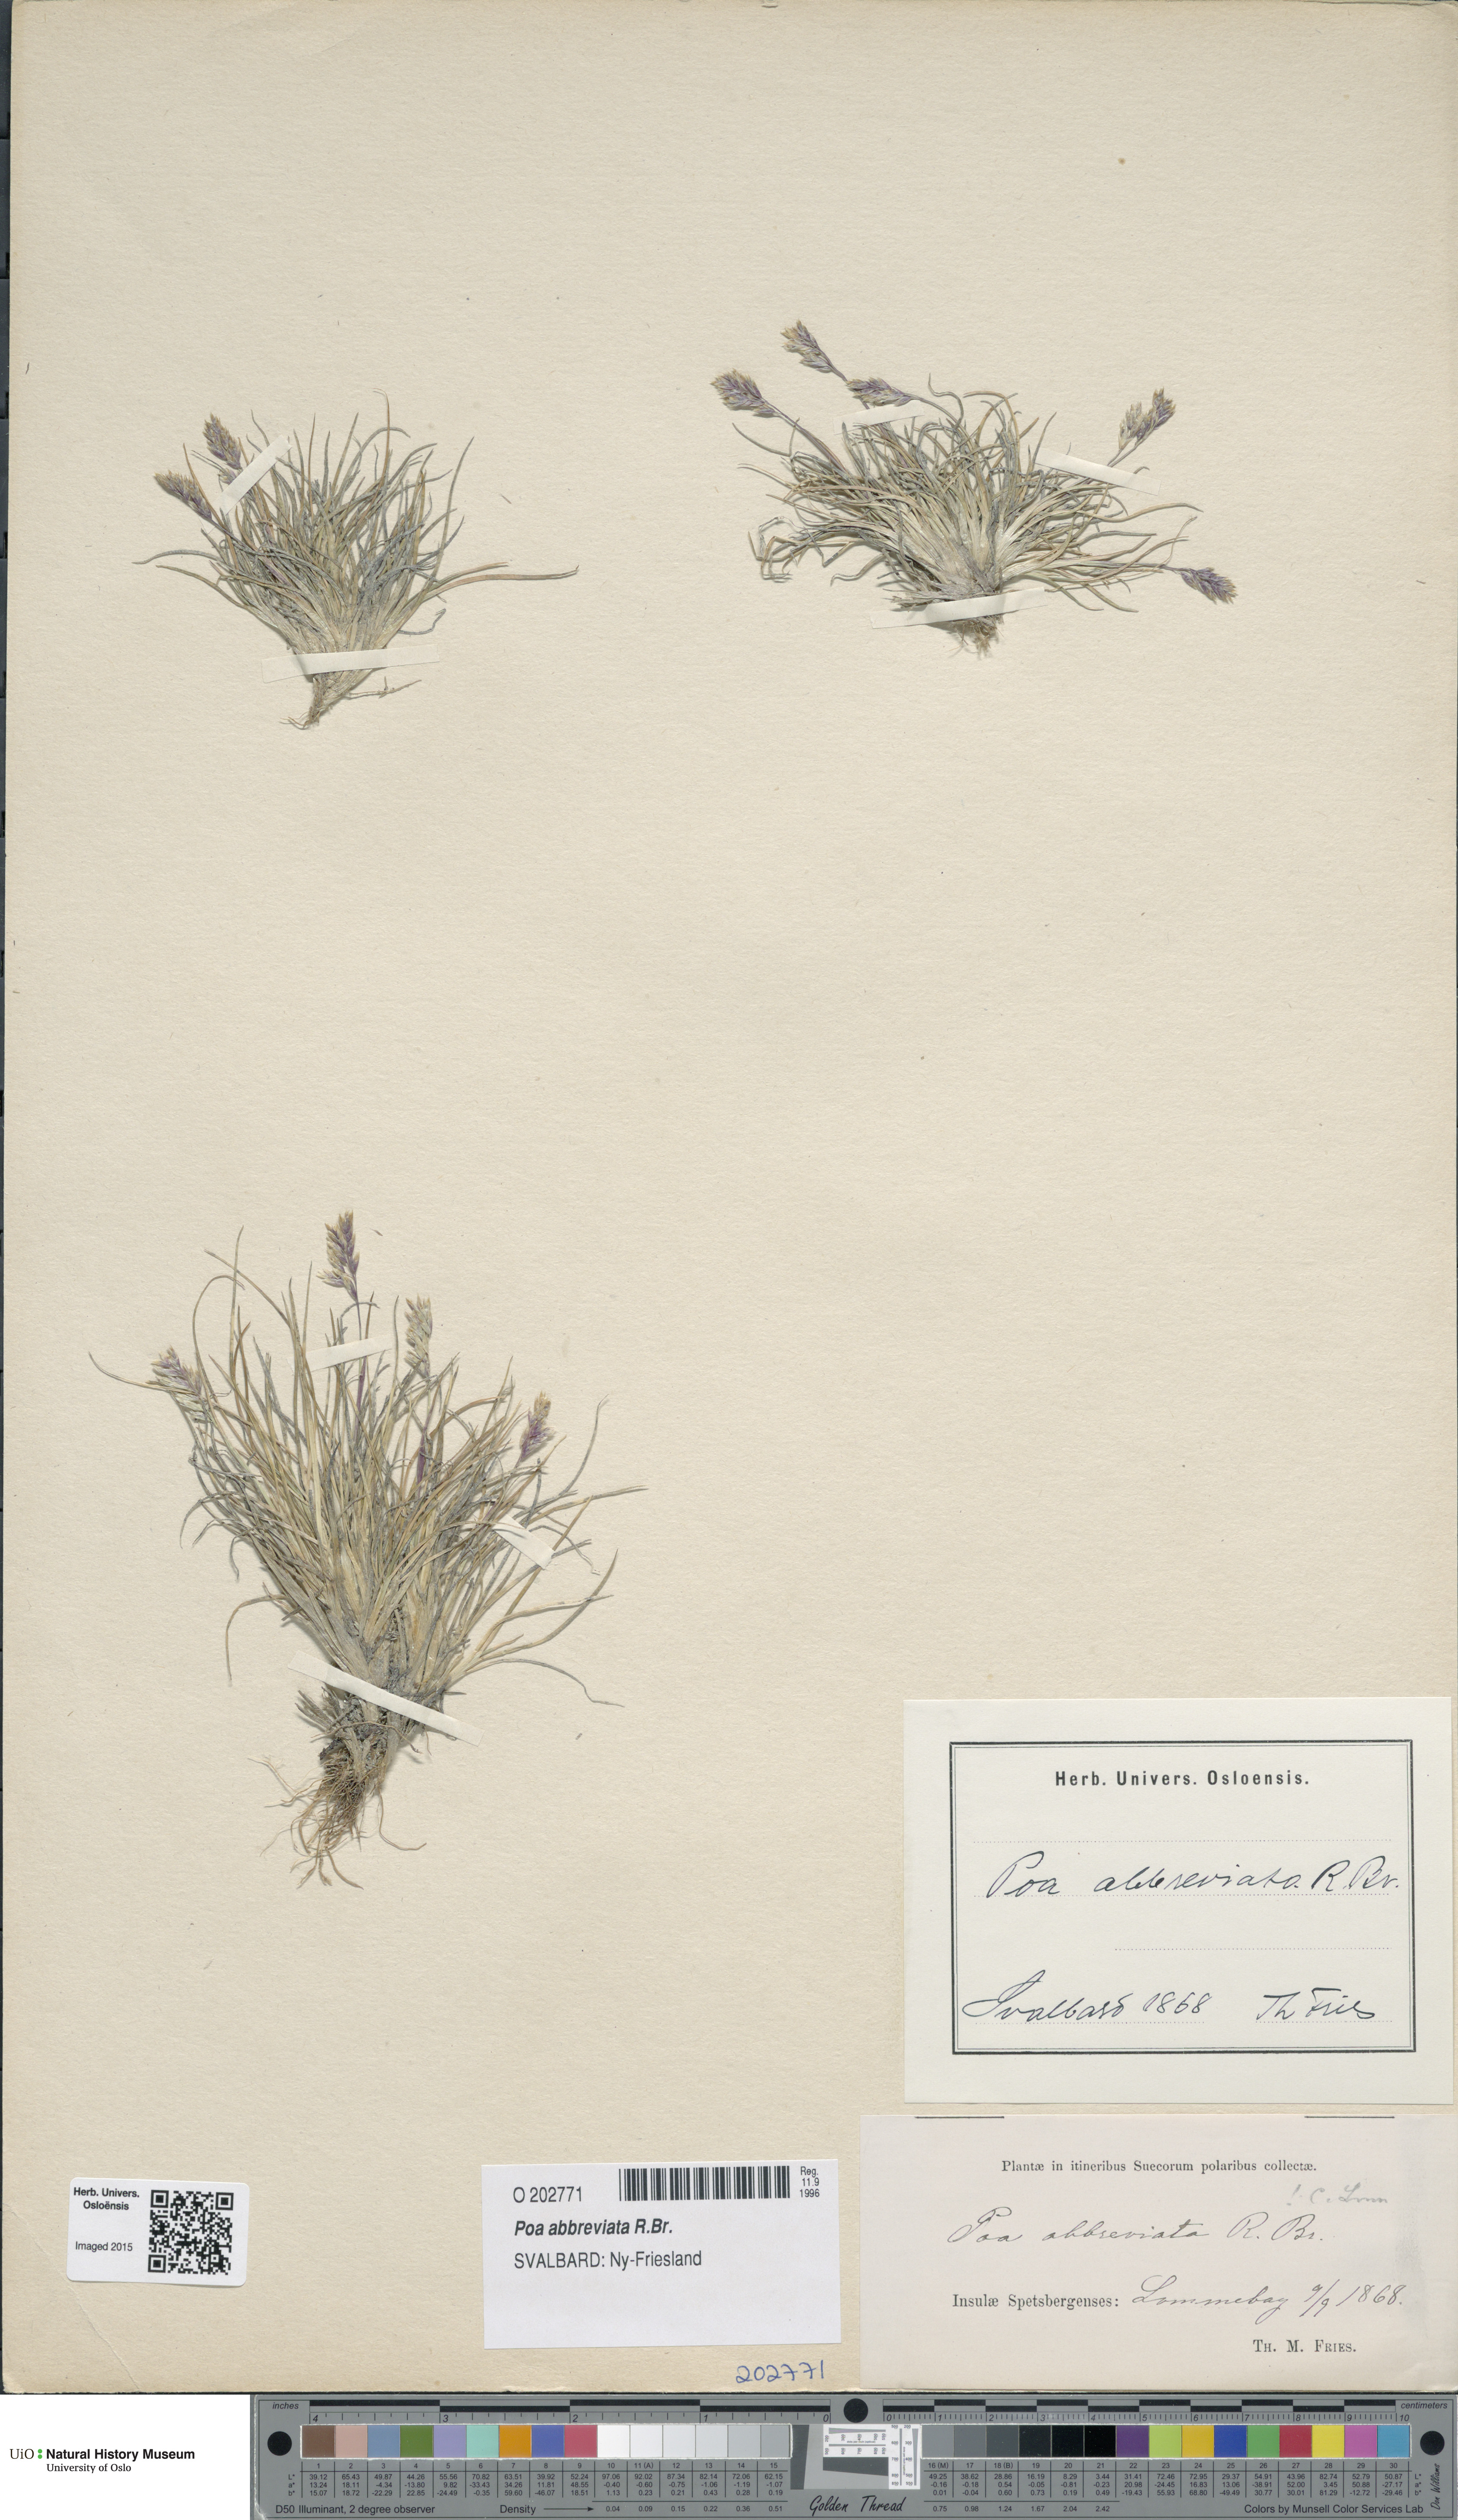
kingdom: Plantae
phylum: Tracheophyta
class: Liliopsida
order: Poales
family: Poaceae
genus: Poa
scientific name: Poa abbreviata
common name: Abbreviated bluegrass
